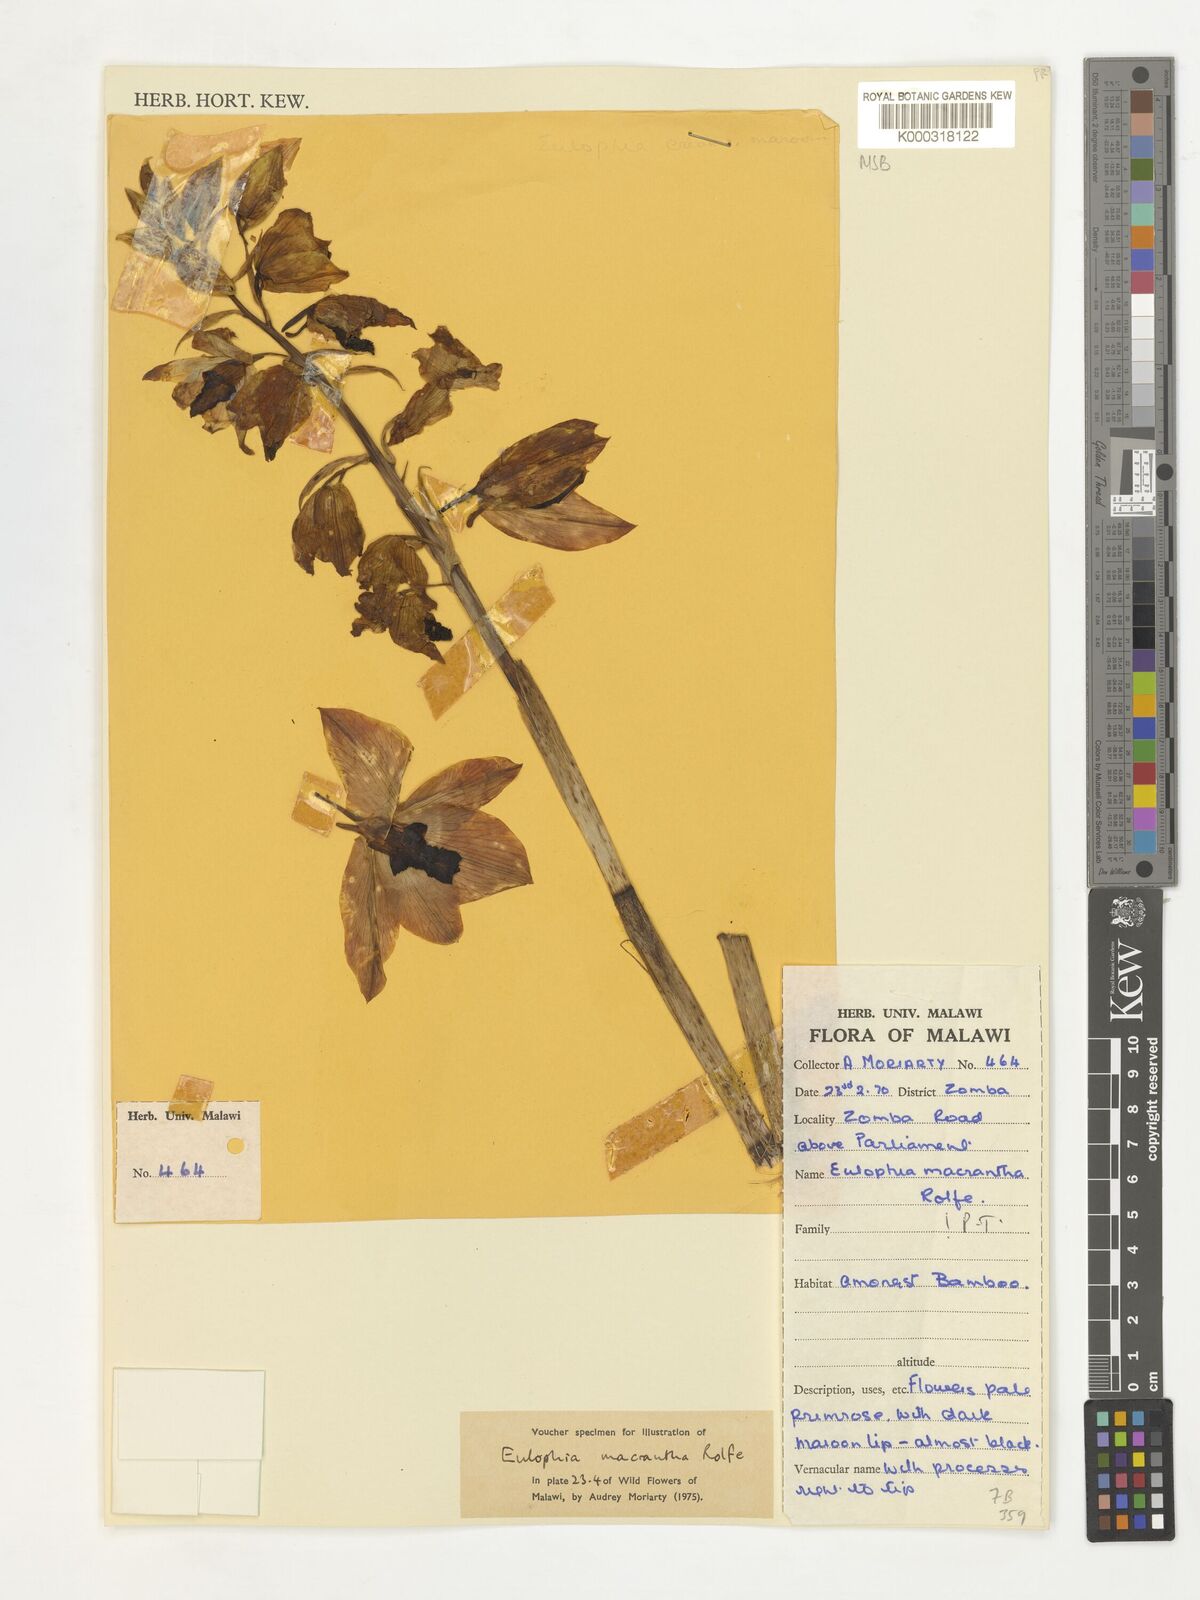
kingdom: Plantae
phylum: Tracheophyta
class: Liliopsida
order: Asparagales
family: Orchidaceae
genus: Eulophia
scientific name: Eulophia macrantha
